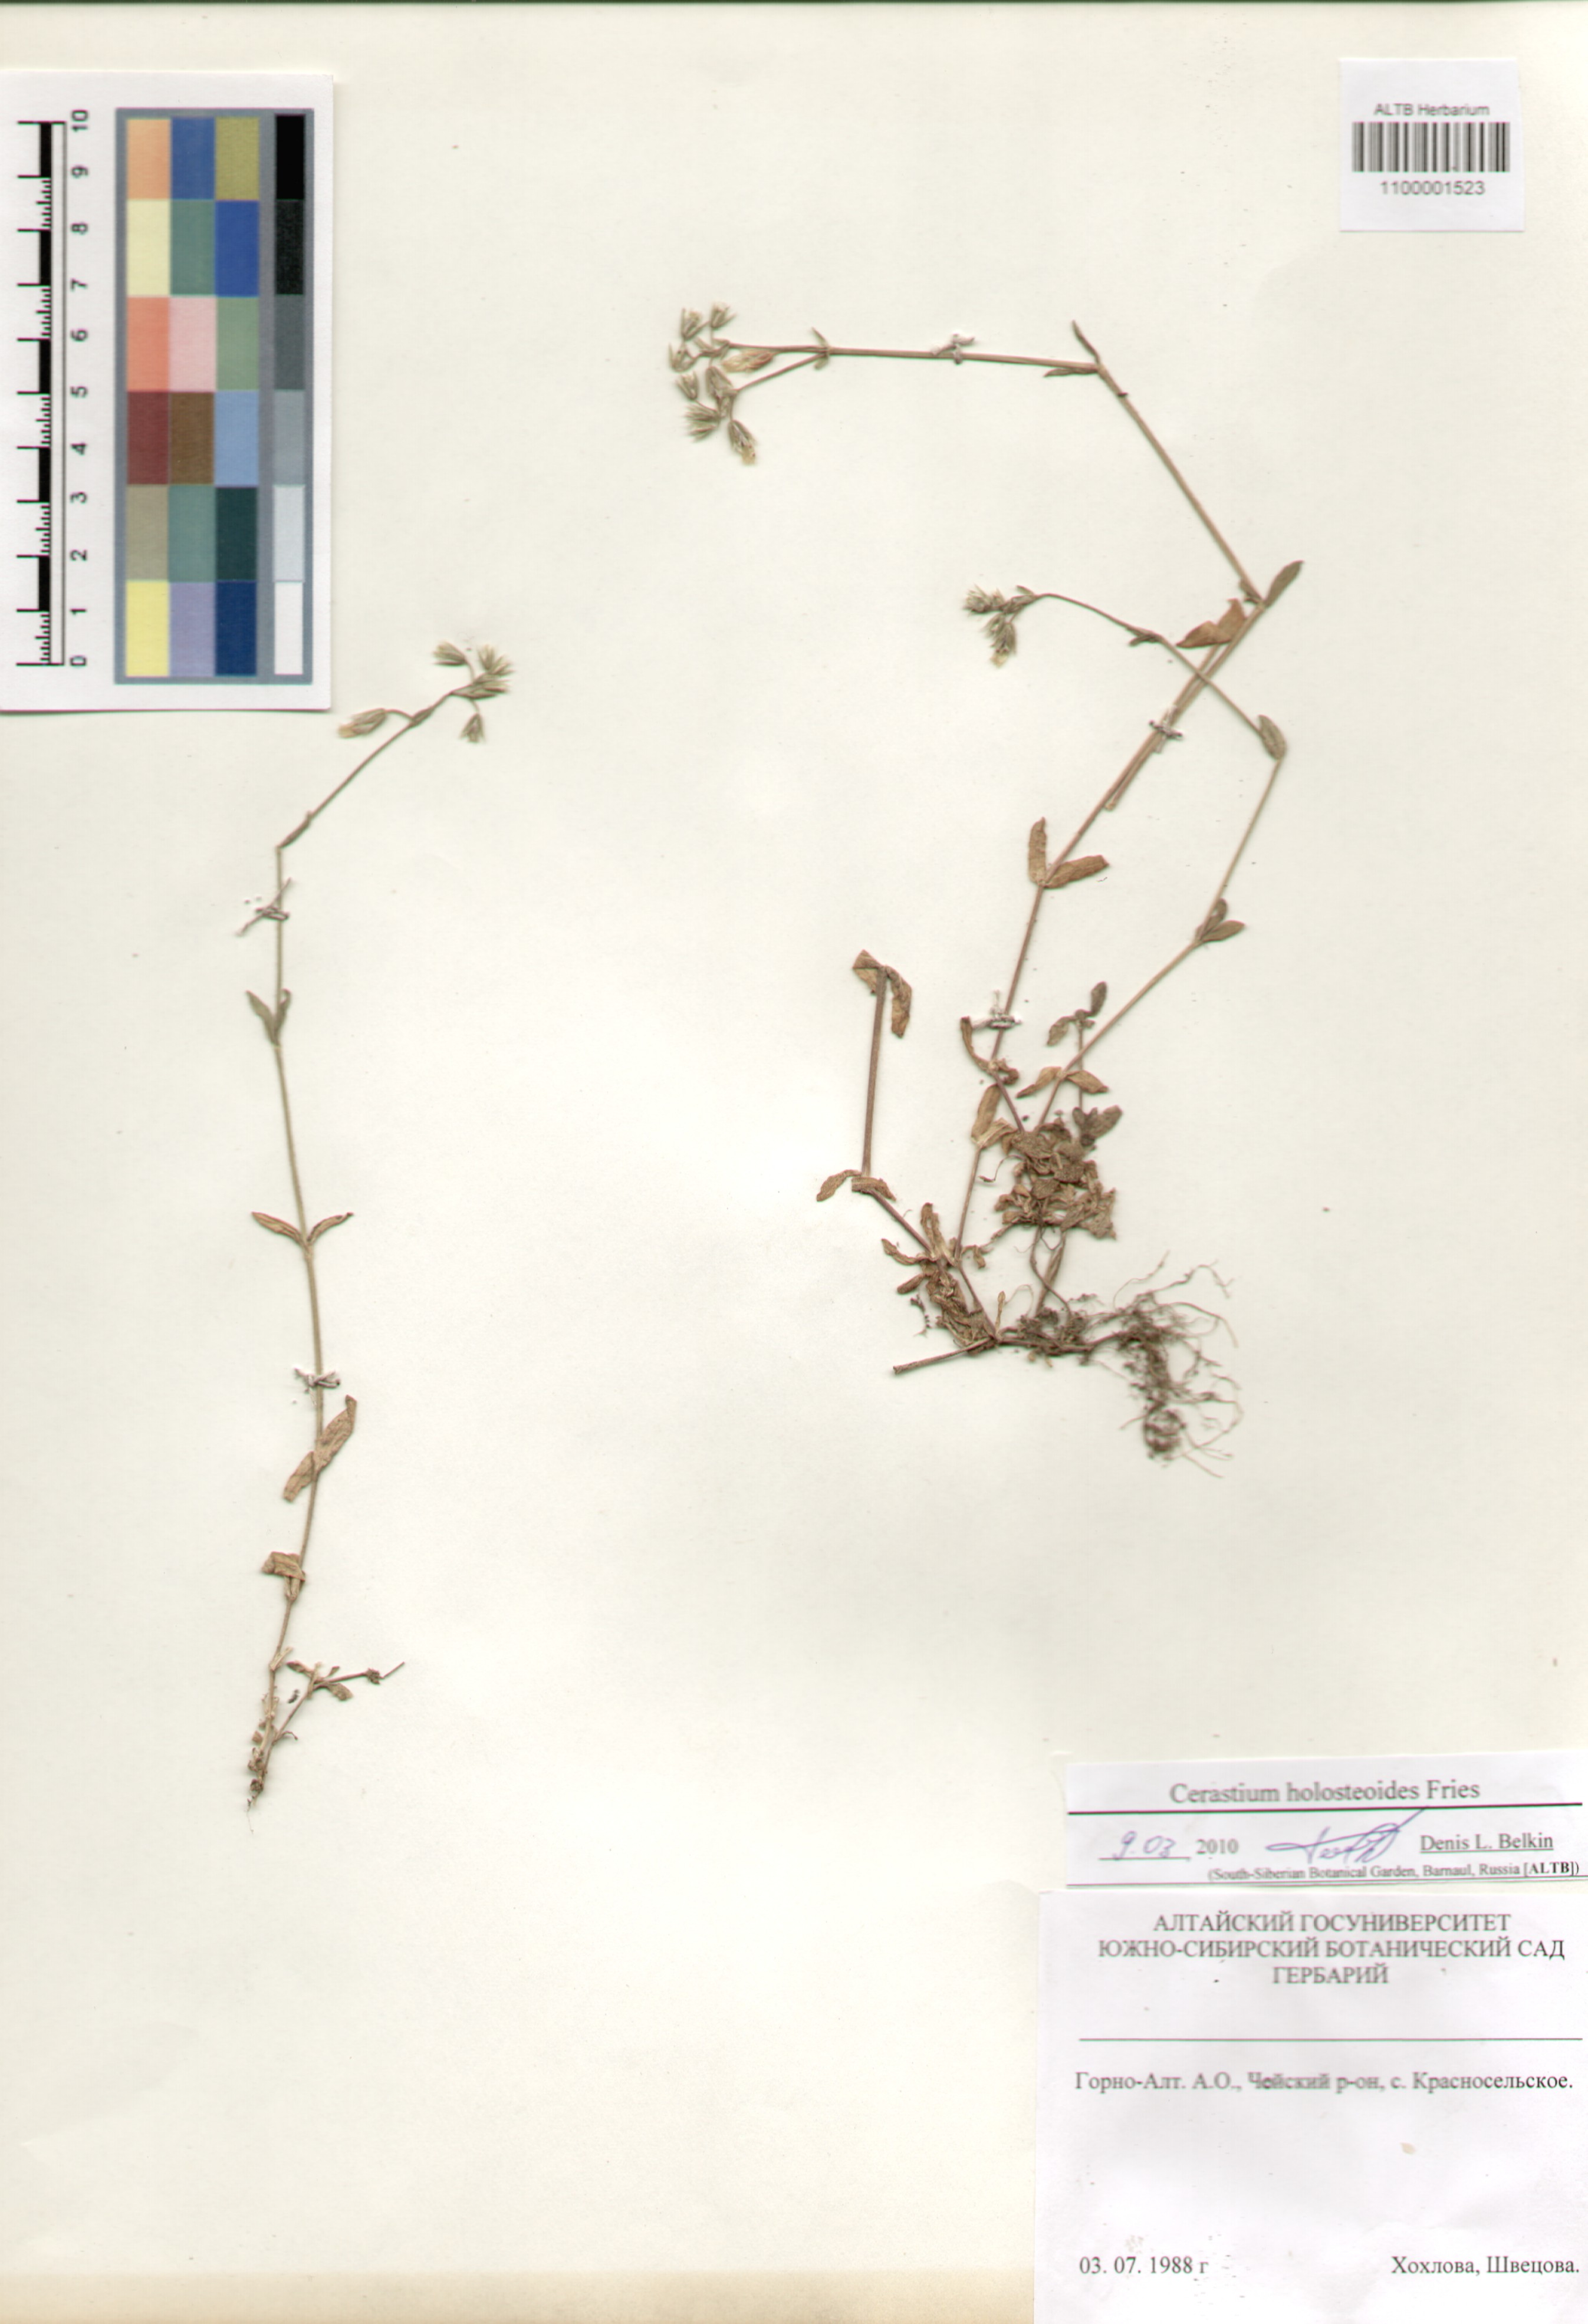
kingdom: Plantae
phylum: Tracheophyta
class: Magnoliopsida
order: Caryophyllales
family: Caryophyllaceae
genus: Cerastium
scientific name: Cerastium holosteoides
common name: Big chickweed
